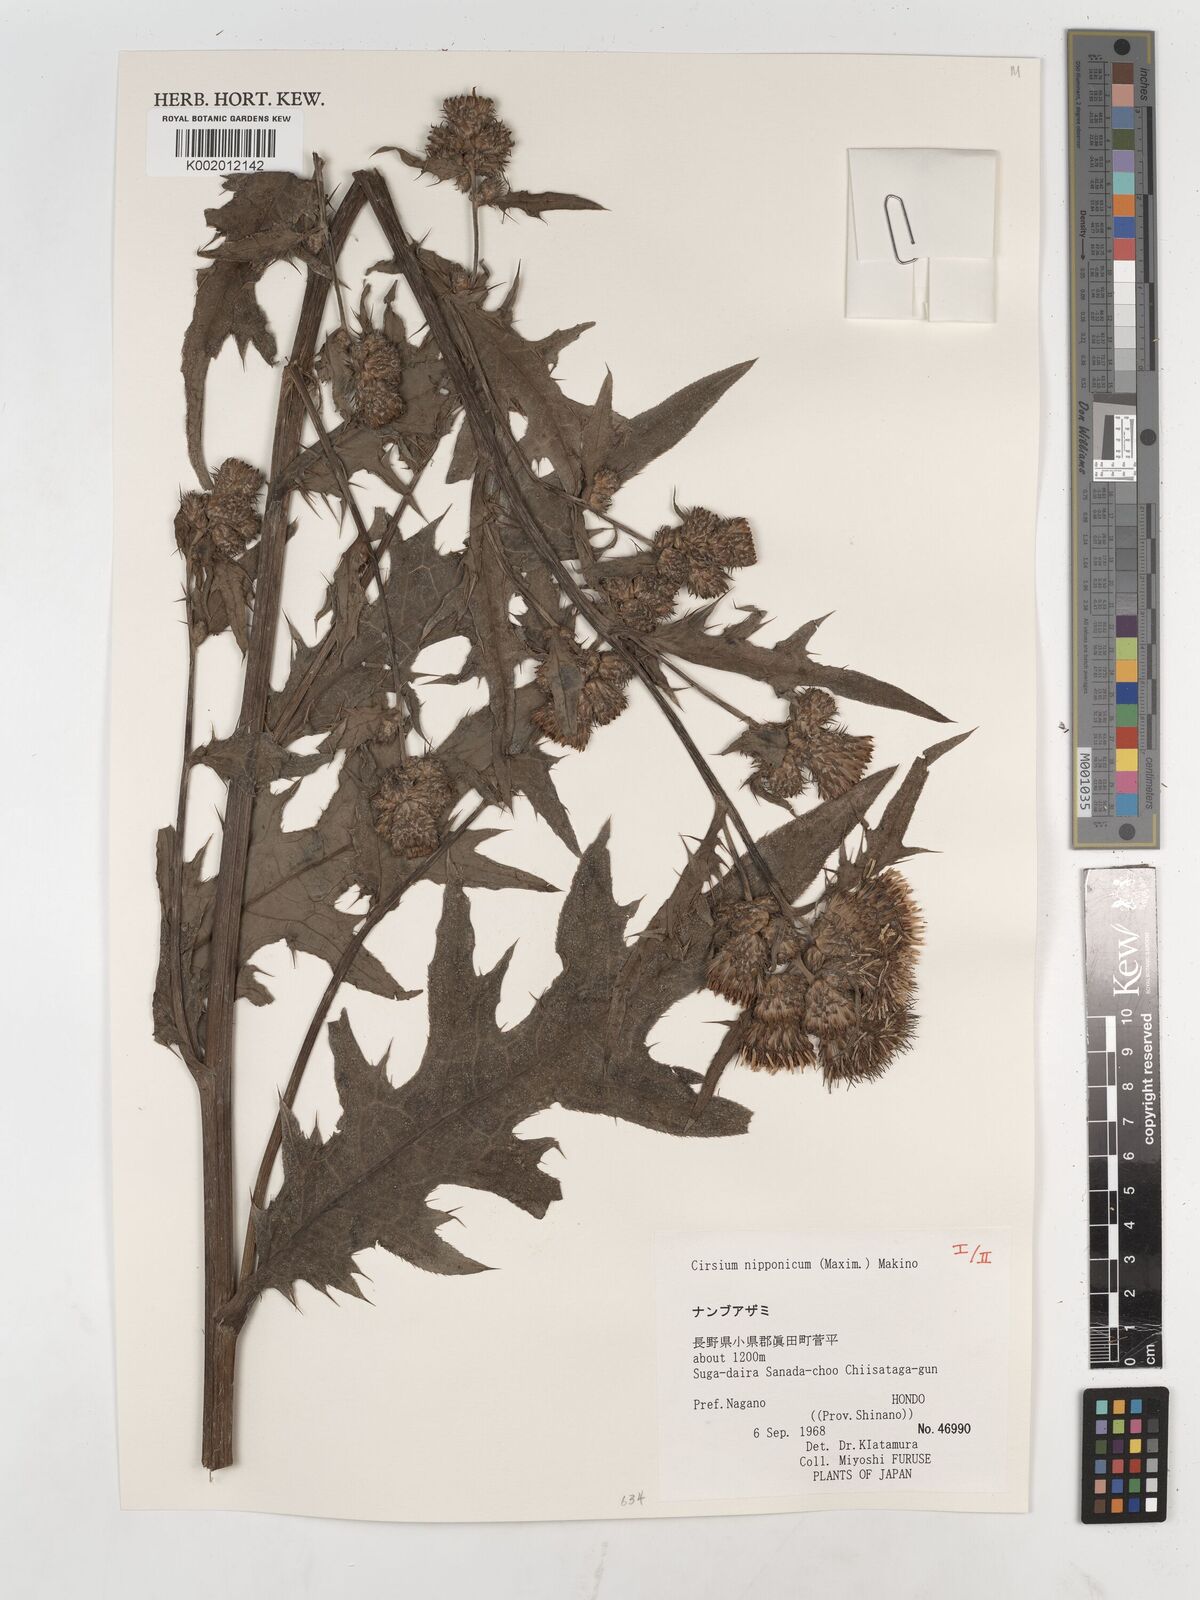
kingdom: Plantae
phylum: Tracheophyta
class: Magnoliopsida
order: Asterales
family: Asteraceae
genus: Cirsium
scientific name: Cirsium nipponicum
